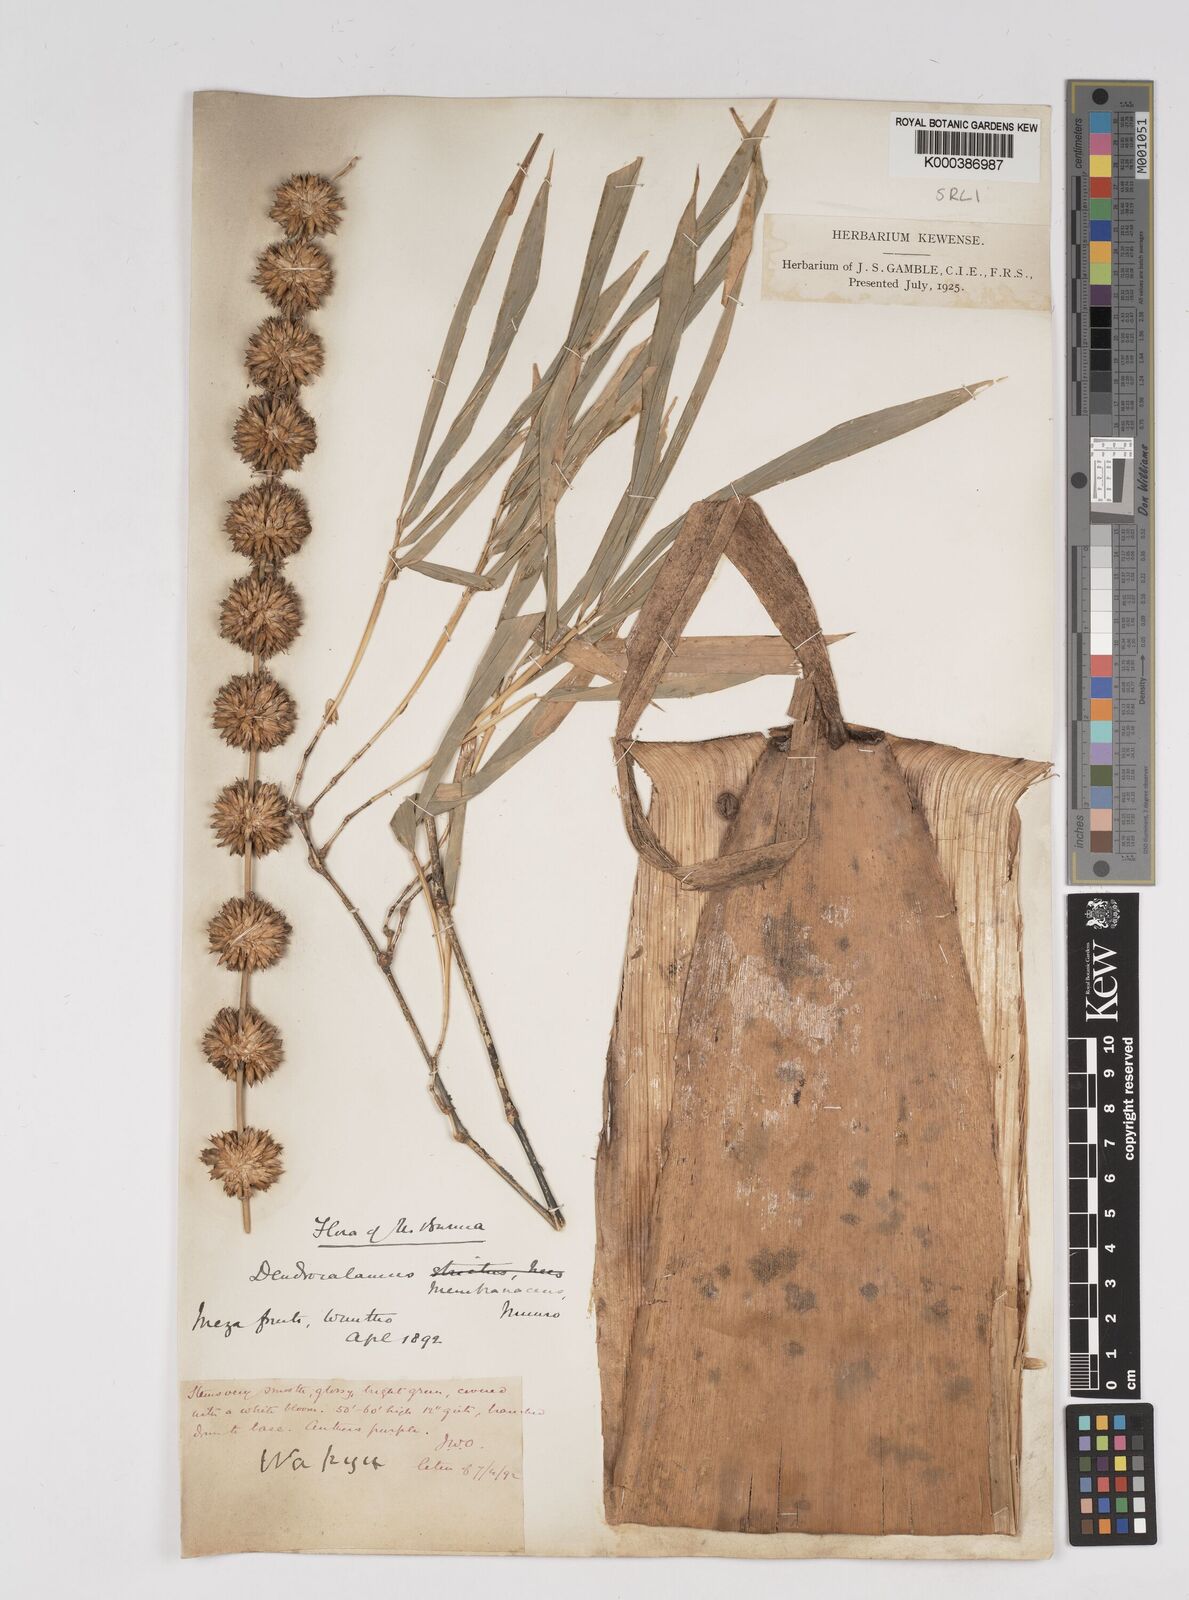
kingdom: Plantae
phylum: Tracheophyta
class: Liliopsida
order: Poales
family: Poaceae
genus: Dendrocalamus
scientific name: Dendrocalamus membranaceus
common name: White bamboo
